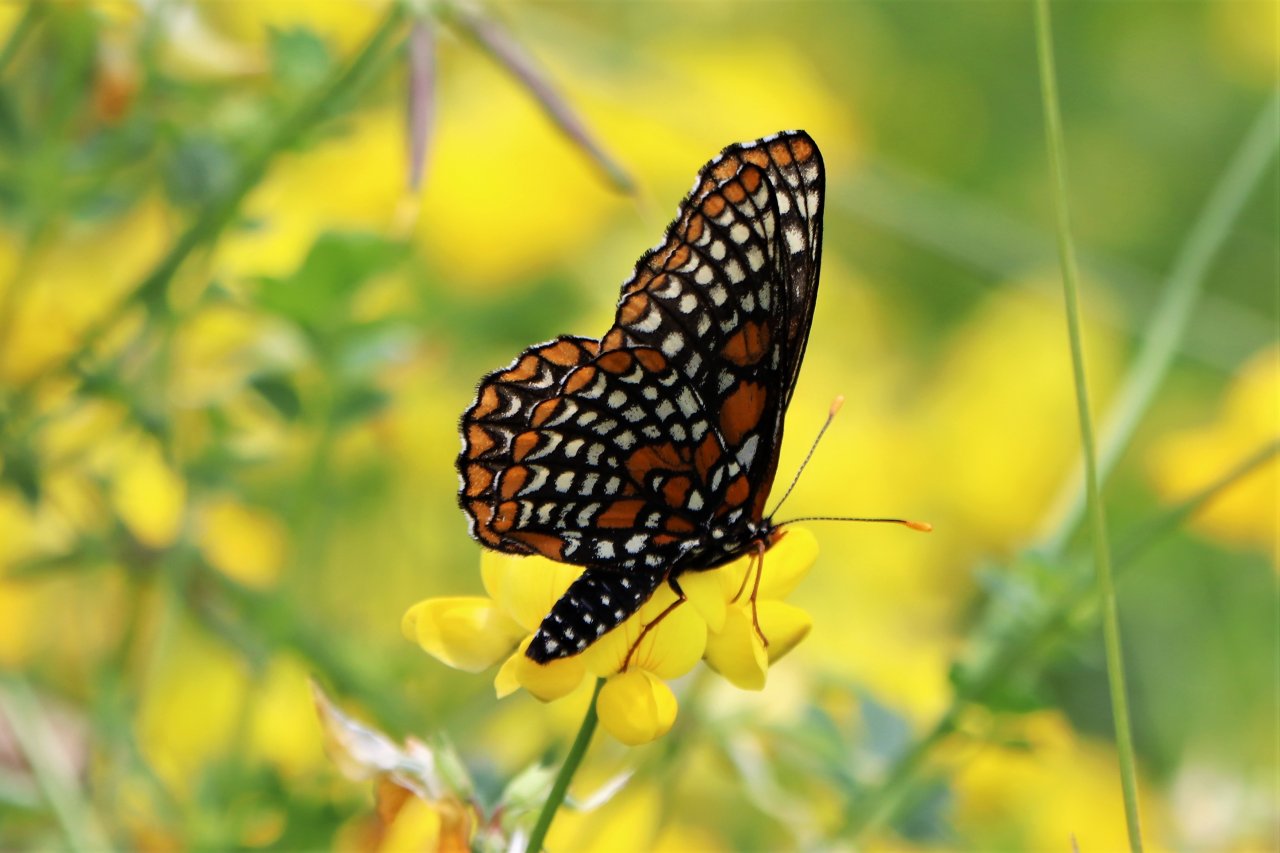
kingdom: Animalia
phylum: Arthropoda
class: Insecta
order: Lepidoptera
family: Nymphalidae
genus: Euphydryas
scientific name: Euphydryas phaeton
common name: Baltimore Checkerspot
